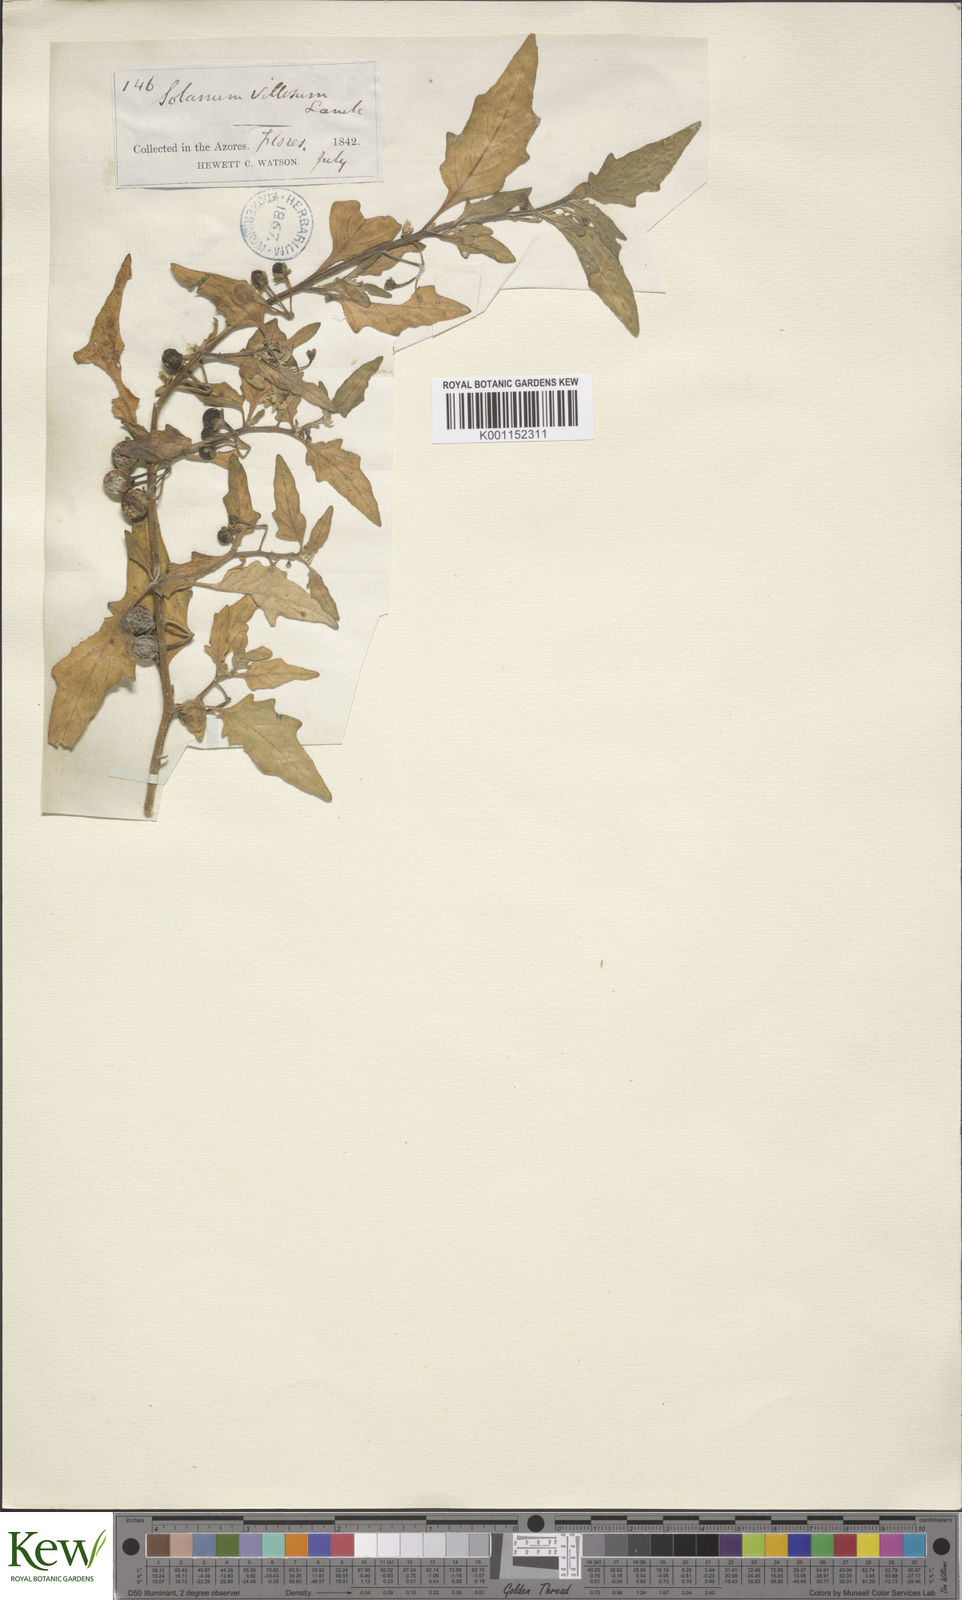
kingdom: Plantae
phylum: Tracheophyta
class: Magnoliopsida
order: Solanales
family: Solanaceae
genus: Solanum
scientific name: Solanum villosum
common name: Red nightshade
